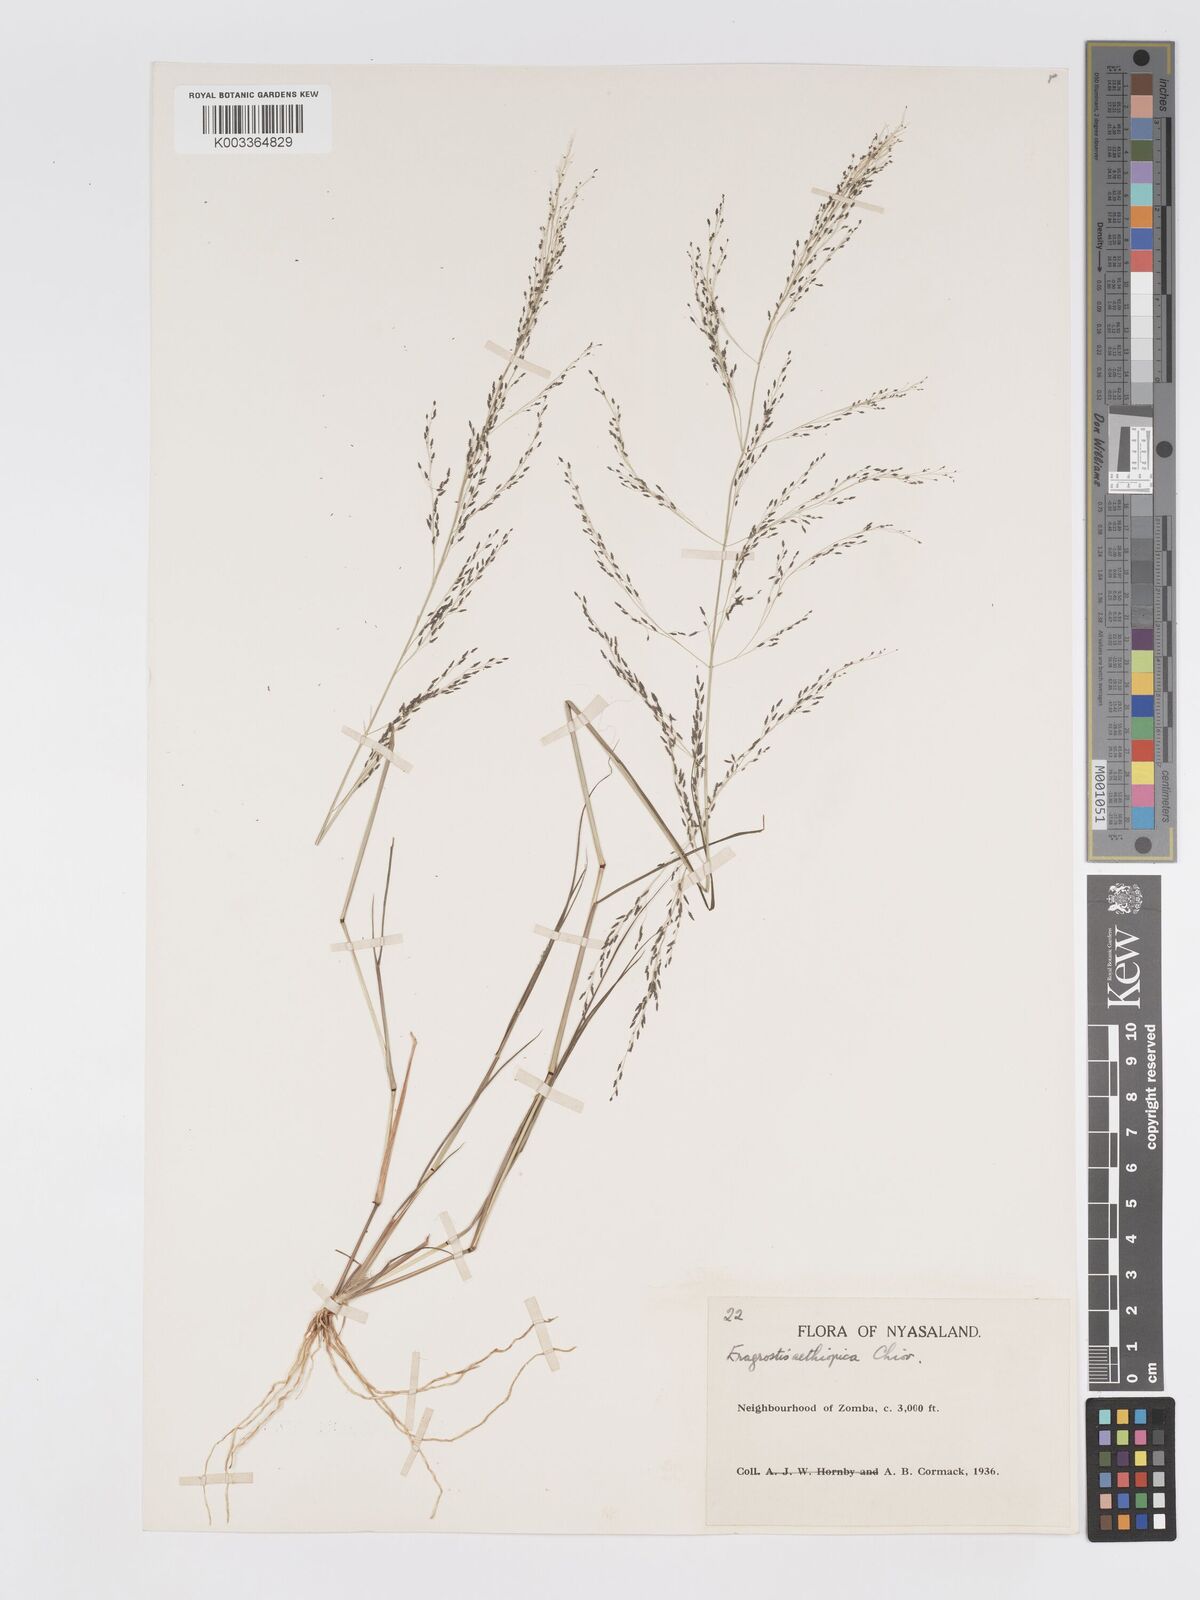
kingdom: Plantae
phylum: Tracheophyta
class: Liliopsida
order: Poales
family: Poaceae
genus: Eragrostis
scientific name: Eragrostis aethiopica
